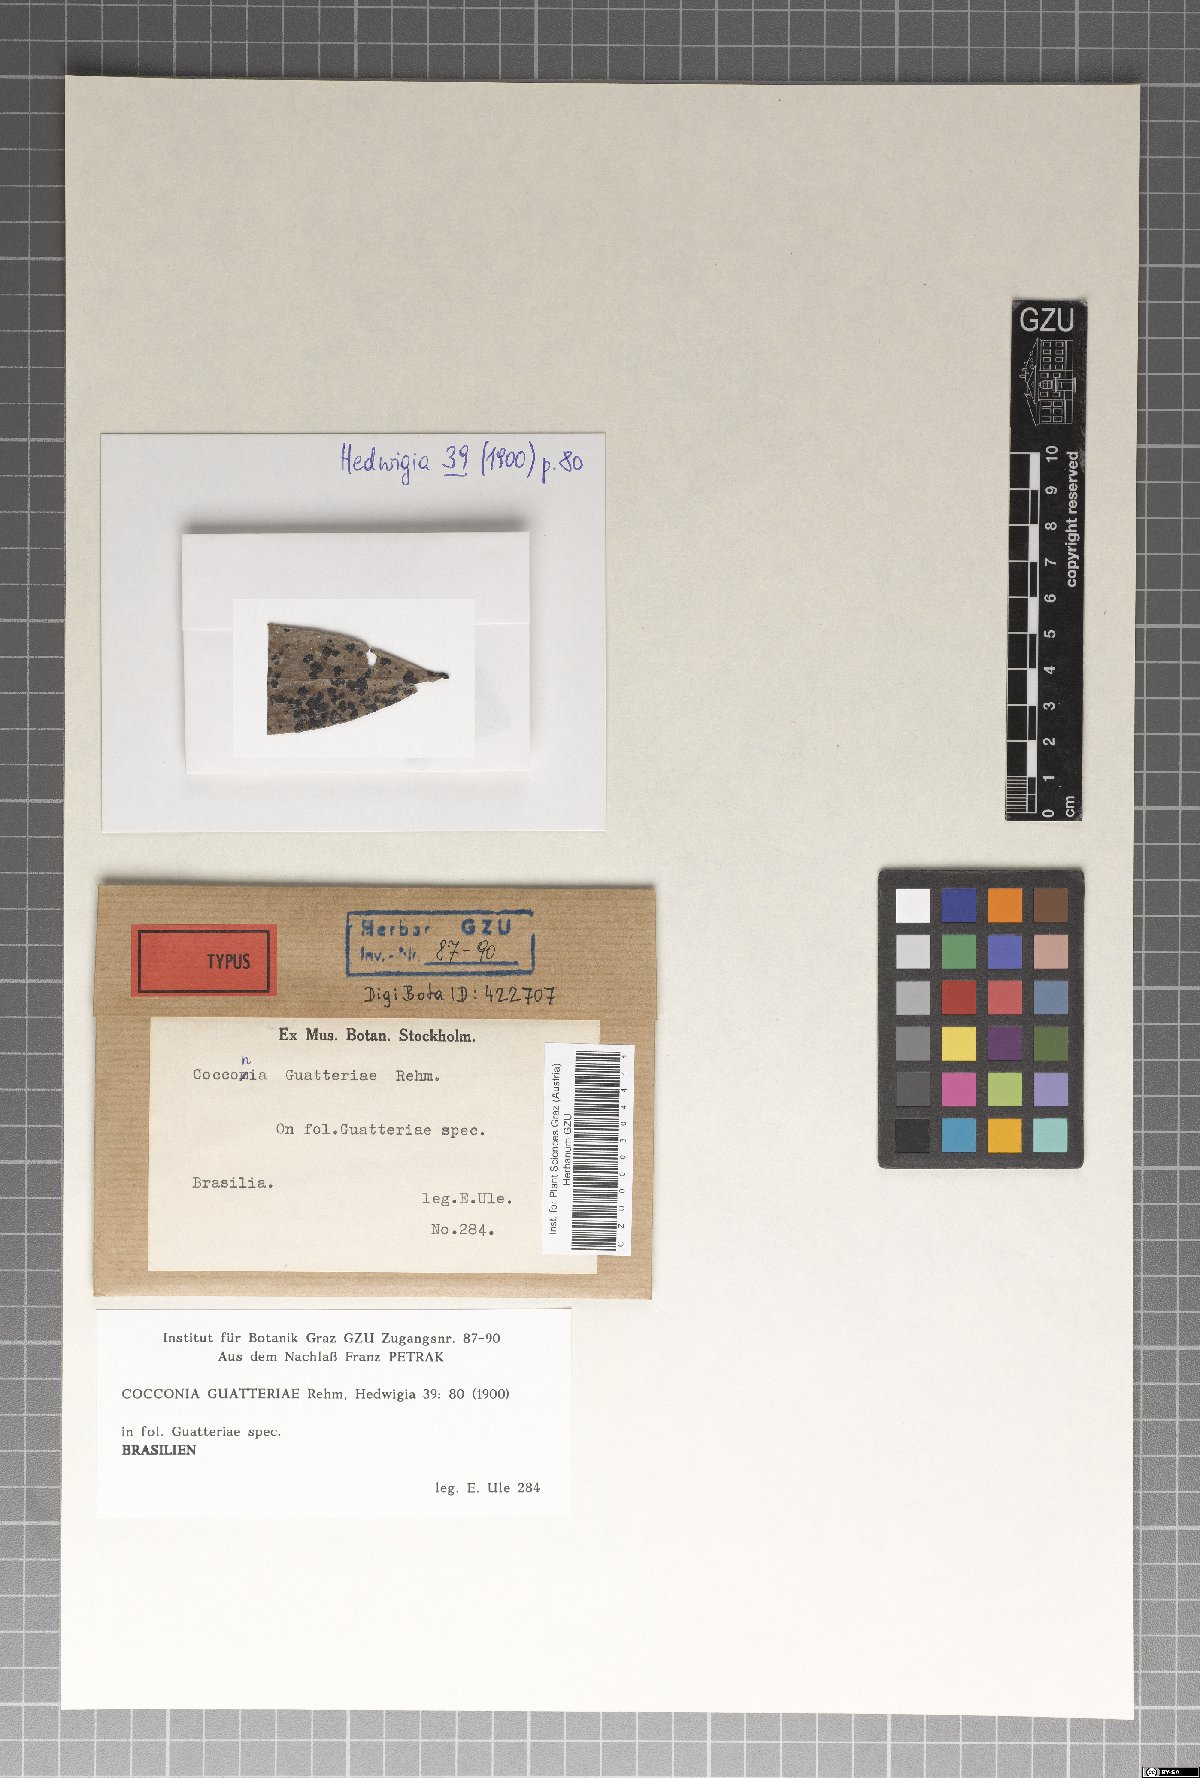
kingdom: Fungi
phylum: Ascomycota
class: Dothideomycetes
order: Asterinales
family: Parmulariaceae
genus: Cocconia
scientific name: Cocconia guatteriae
